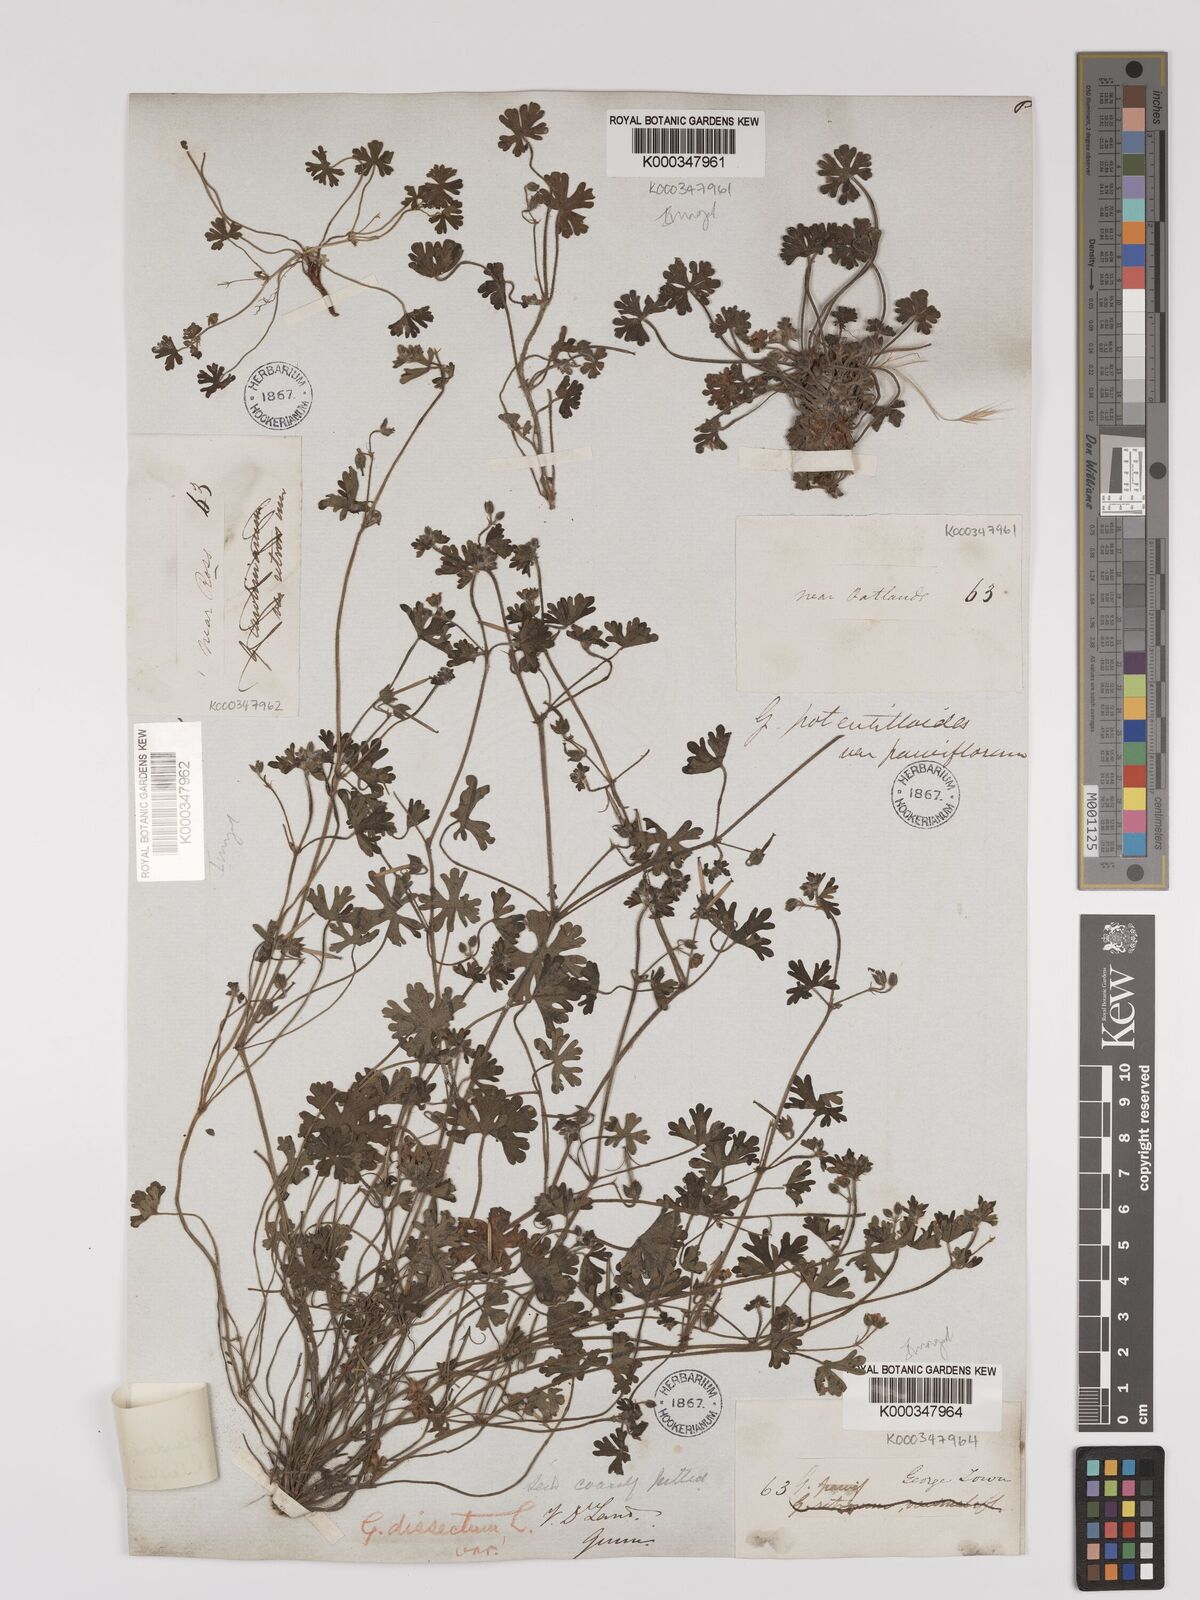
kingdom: Plantae
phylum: Tracheophyta
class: Magnoliopsida
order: Geraniales
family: Geraniaceae
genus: Geranium
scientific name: Geranium solanderi
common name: Solander's geranium
